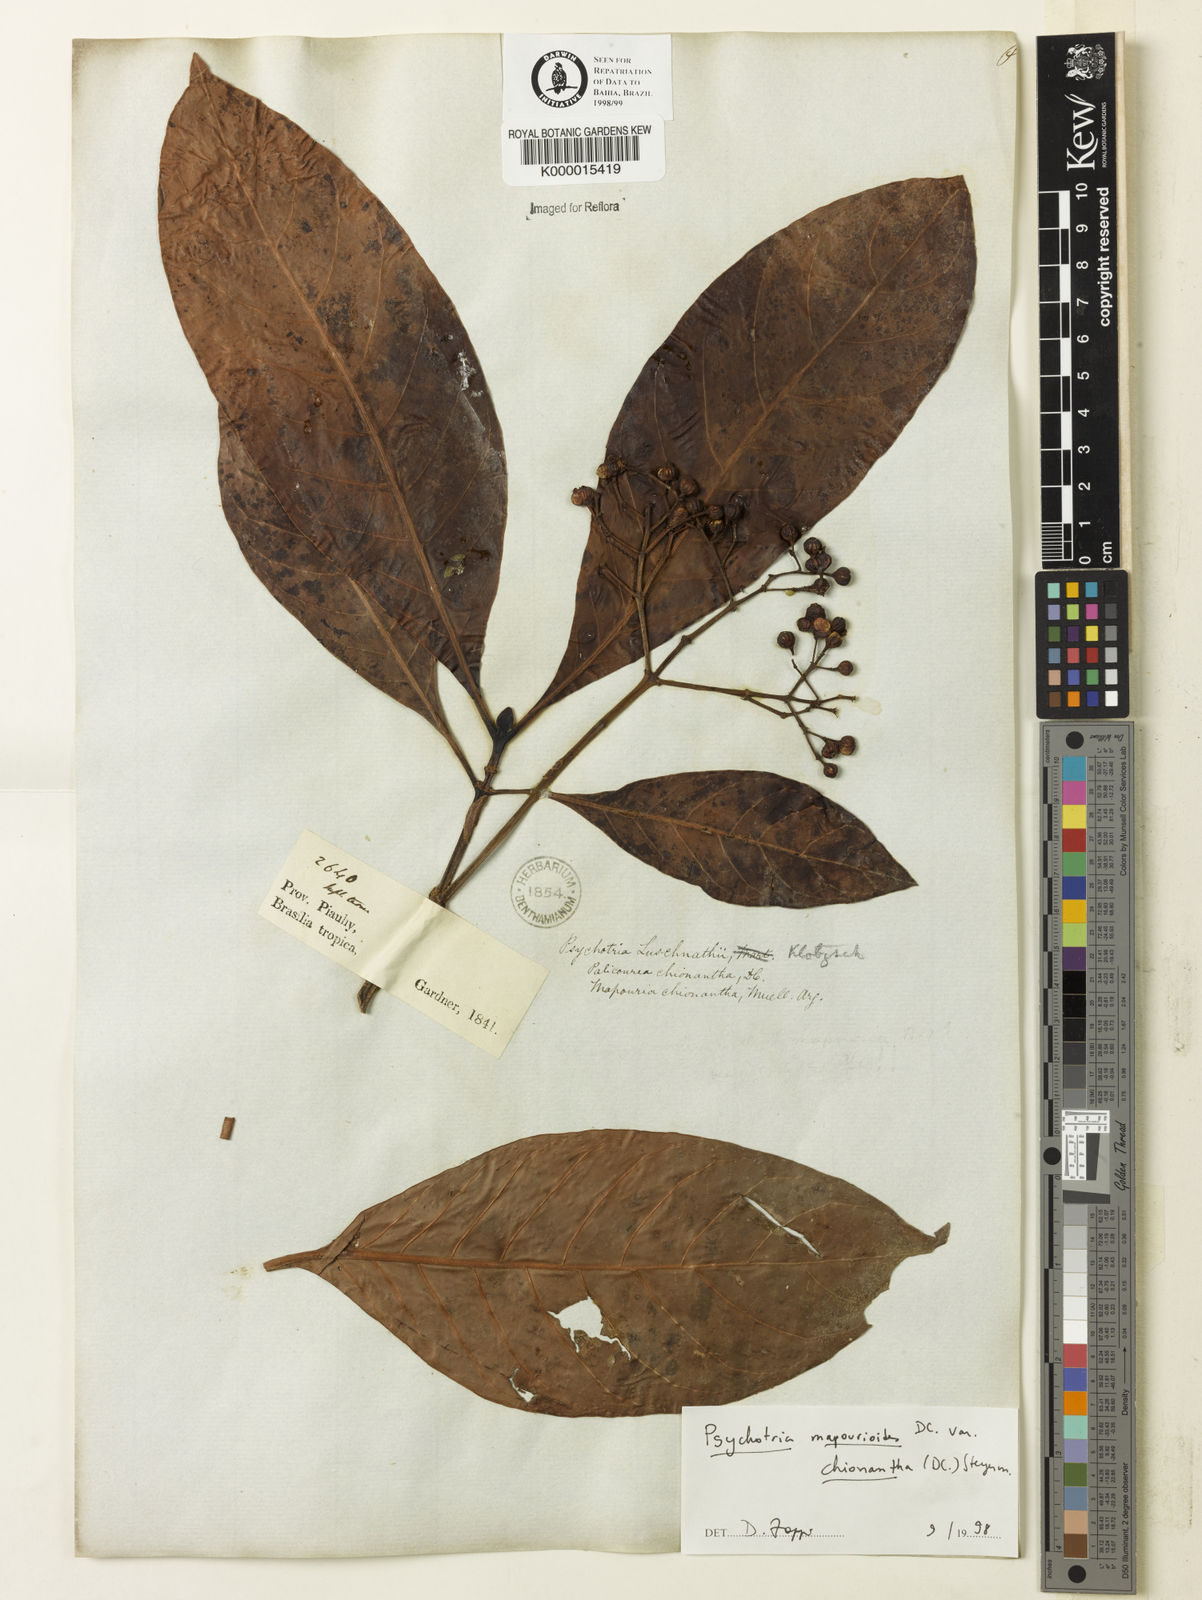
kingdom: Plantae
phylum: Tracheophyta
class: Magnoliopsida
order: Gentianales
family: Rubiaceae
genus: Psychotria
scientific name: Psychotria carthagenensis
